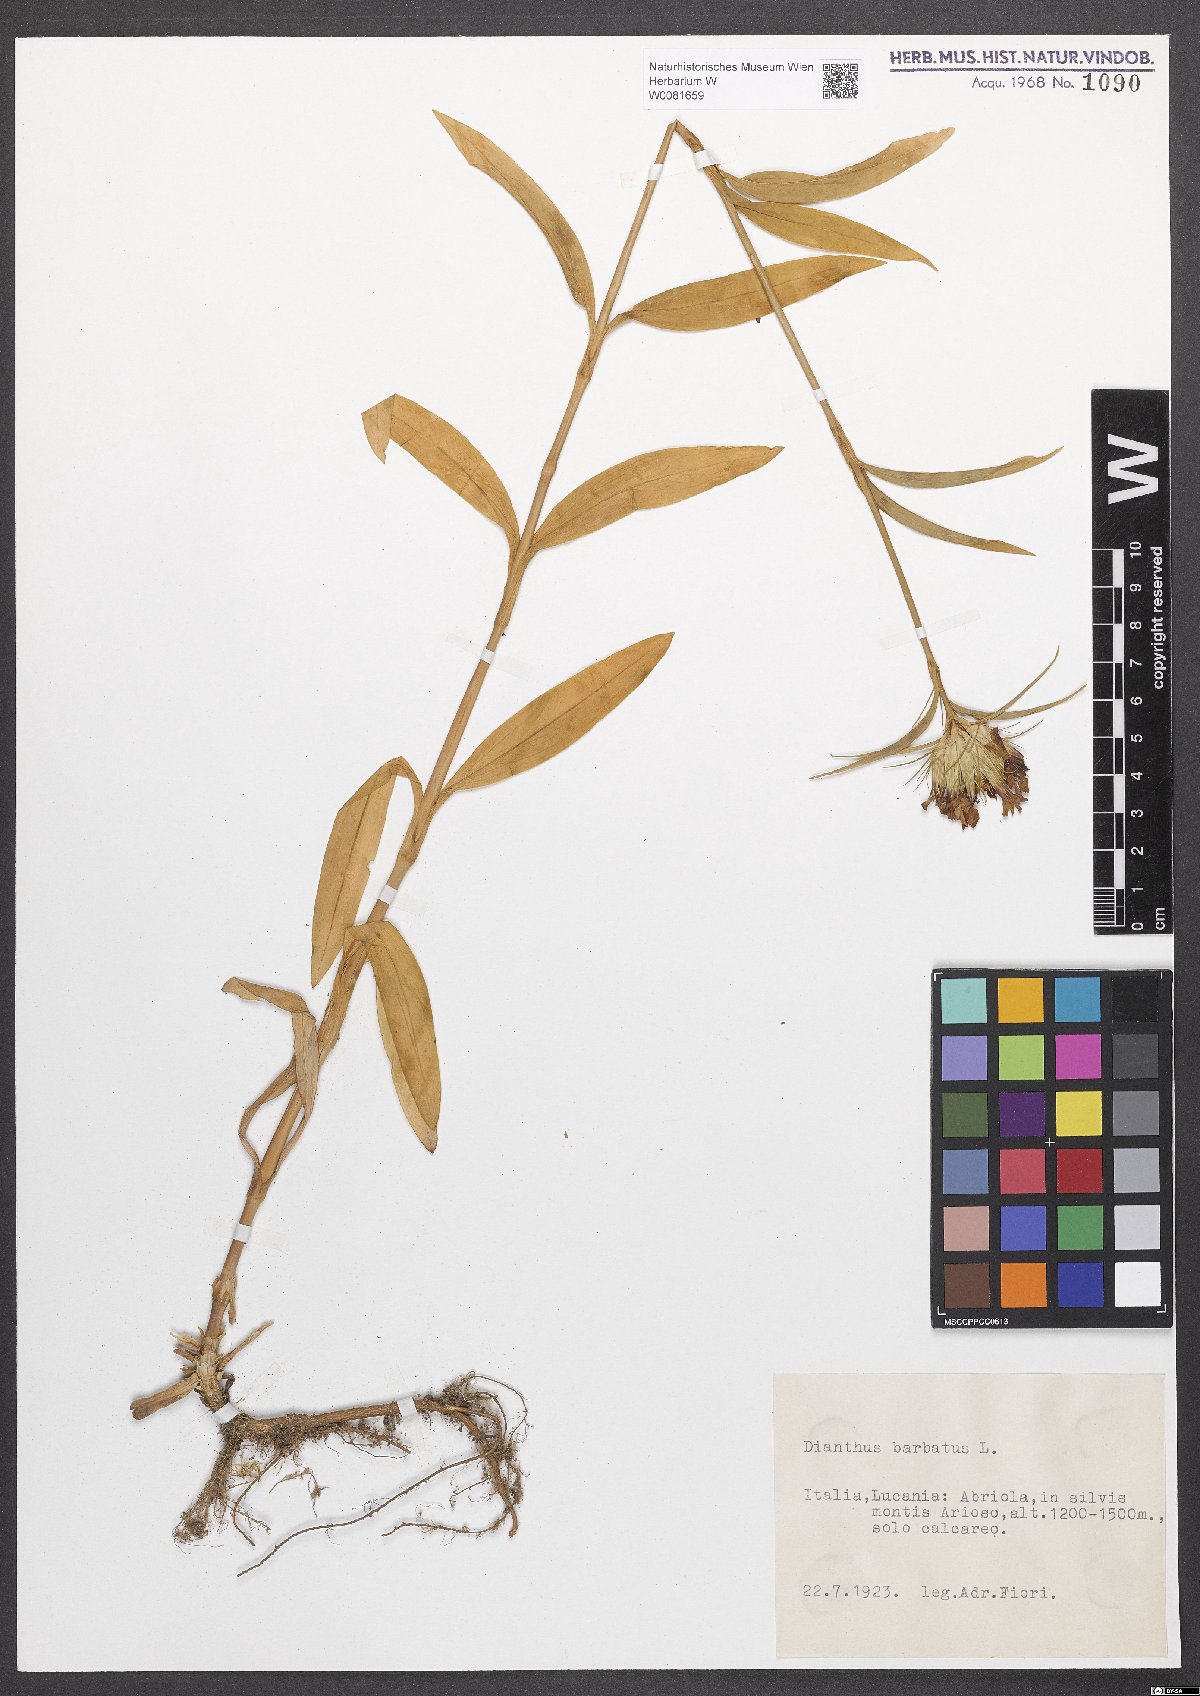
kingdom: Plantae
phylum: Tracheophyta
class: Magnoliopsida
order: Caryophyllales
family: Caryophyllaceae
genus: Dianthus
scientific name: Dianthus barbatus
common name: Sweet-william
